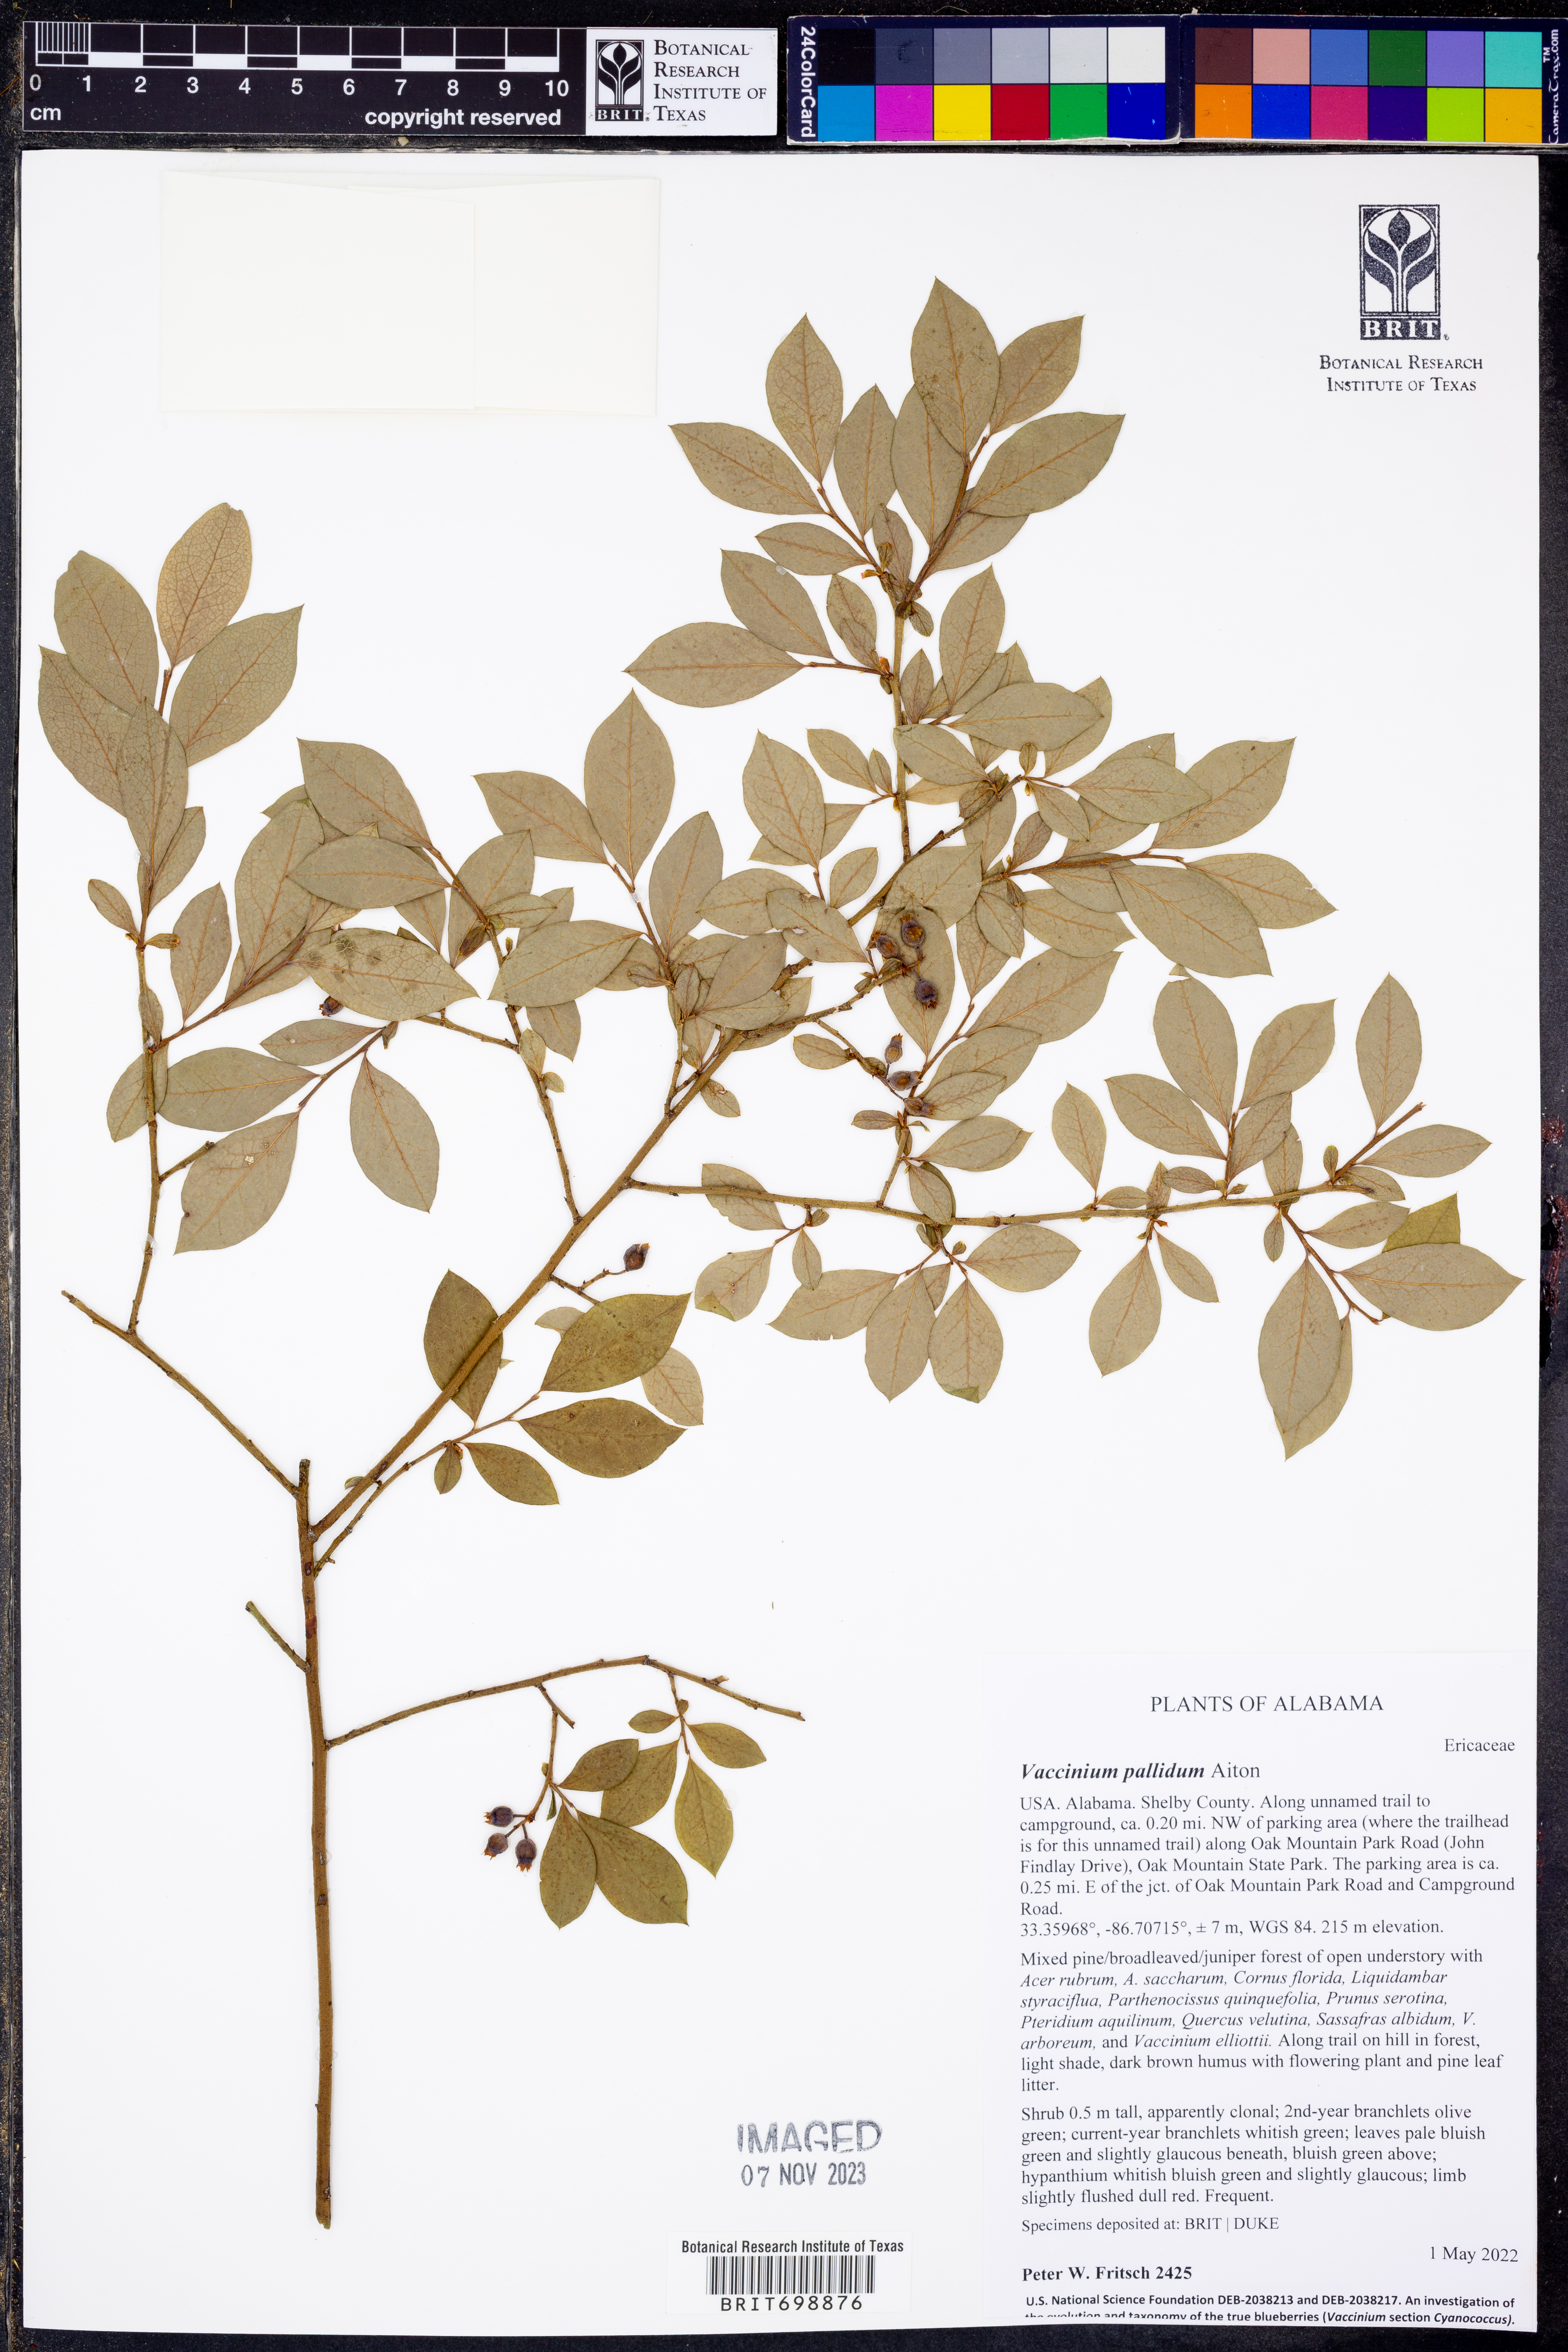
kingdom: Plantae
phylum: Tracheophyta
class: Magnoliopsida
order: Ericales
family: Ericaceae
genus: Vaccinium
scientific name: Vaccinium pallidum
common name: Blue ridge blueberry
